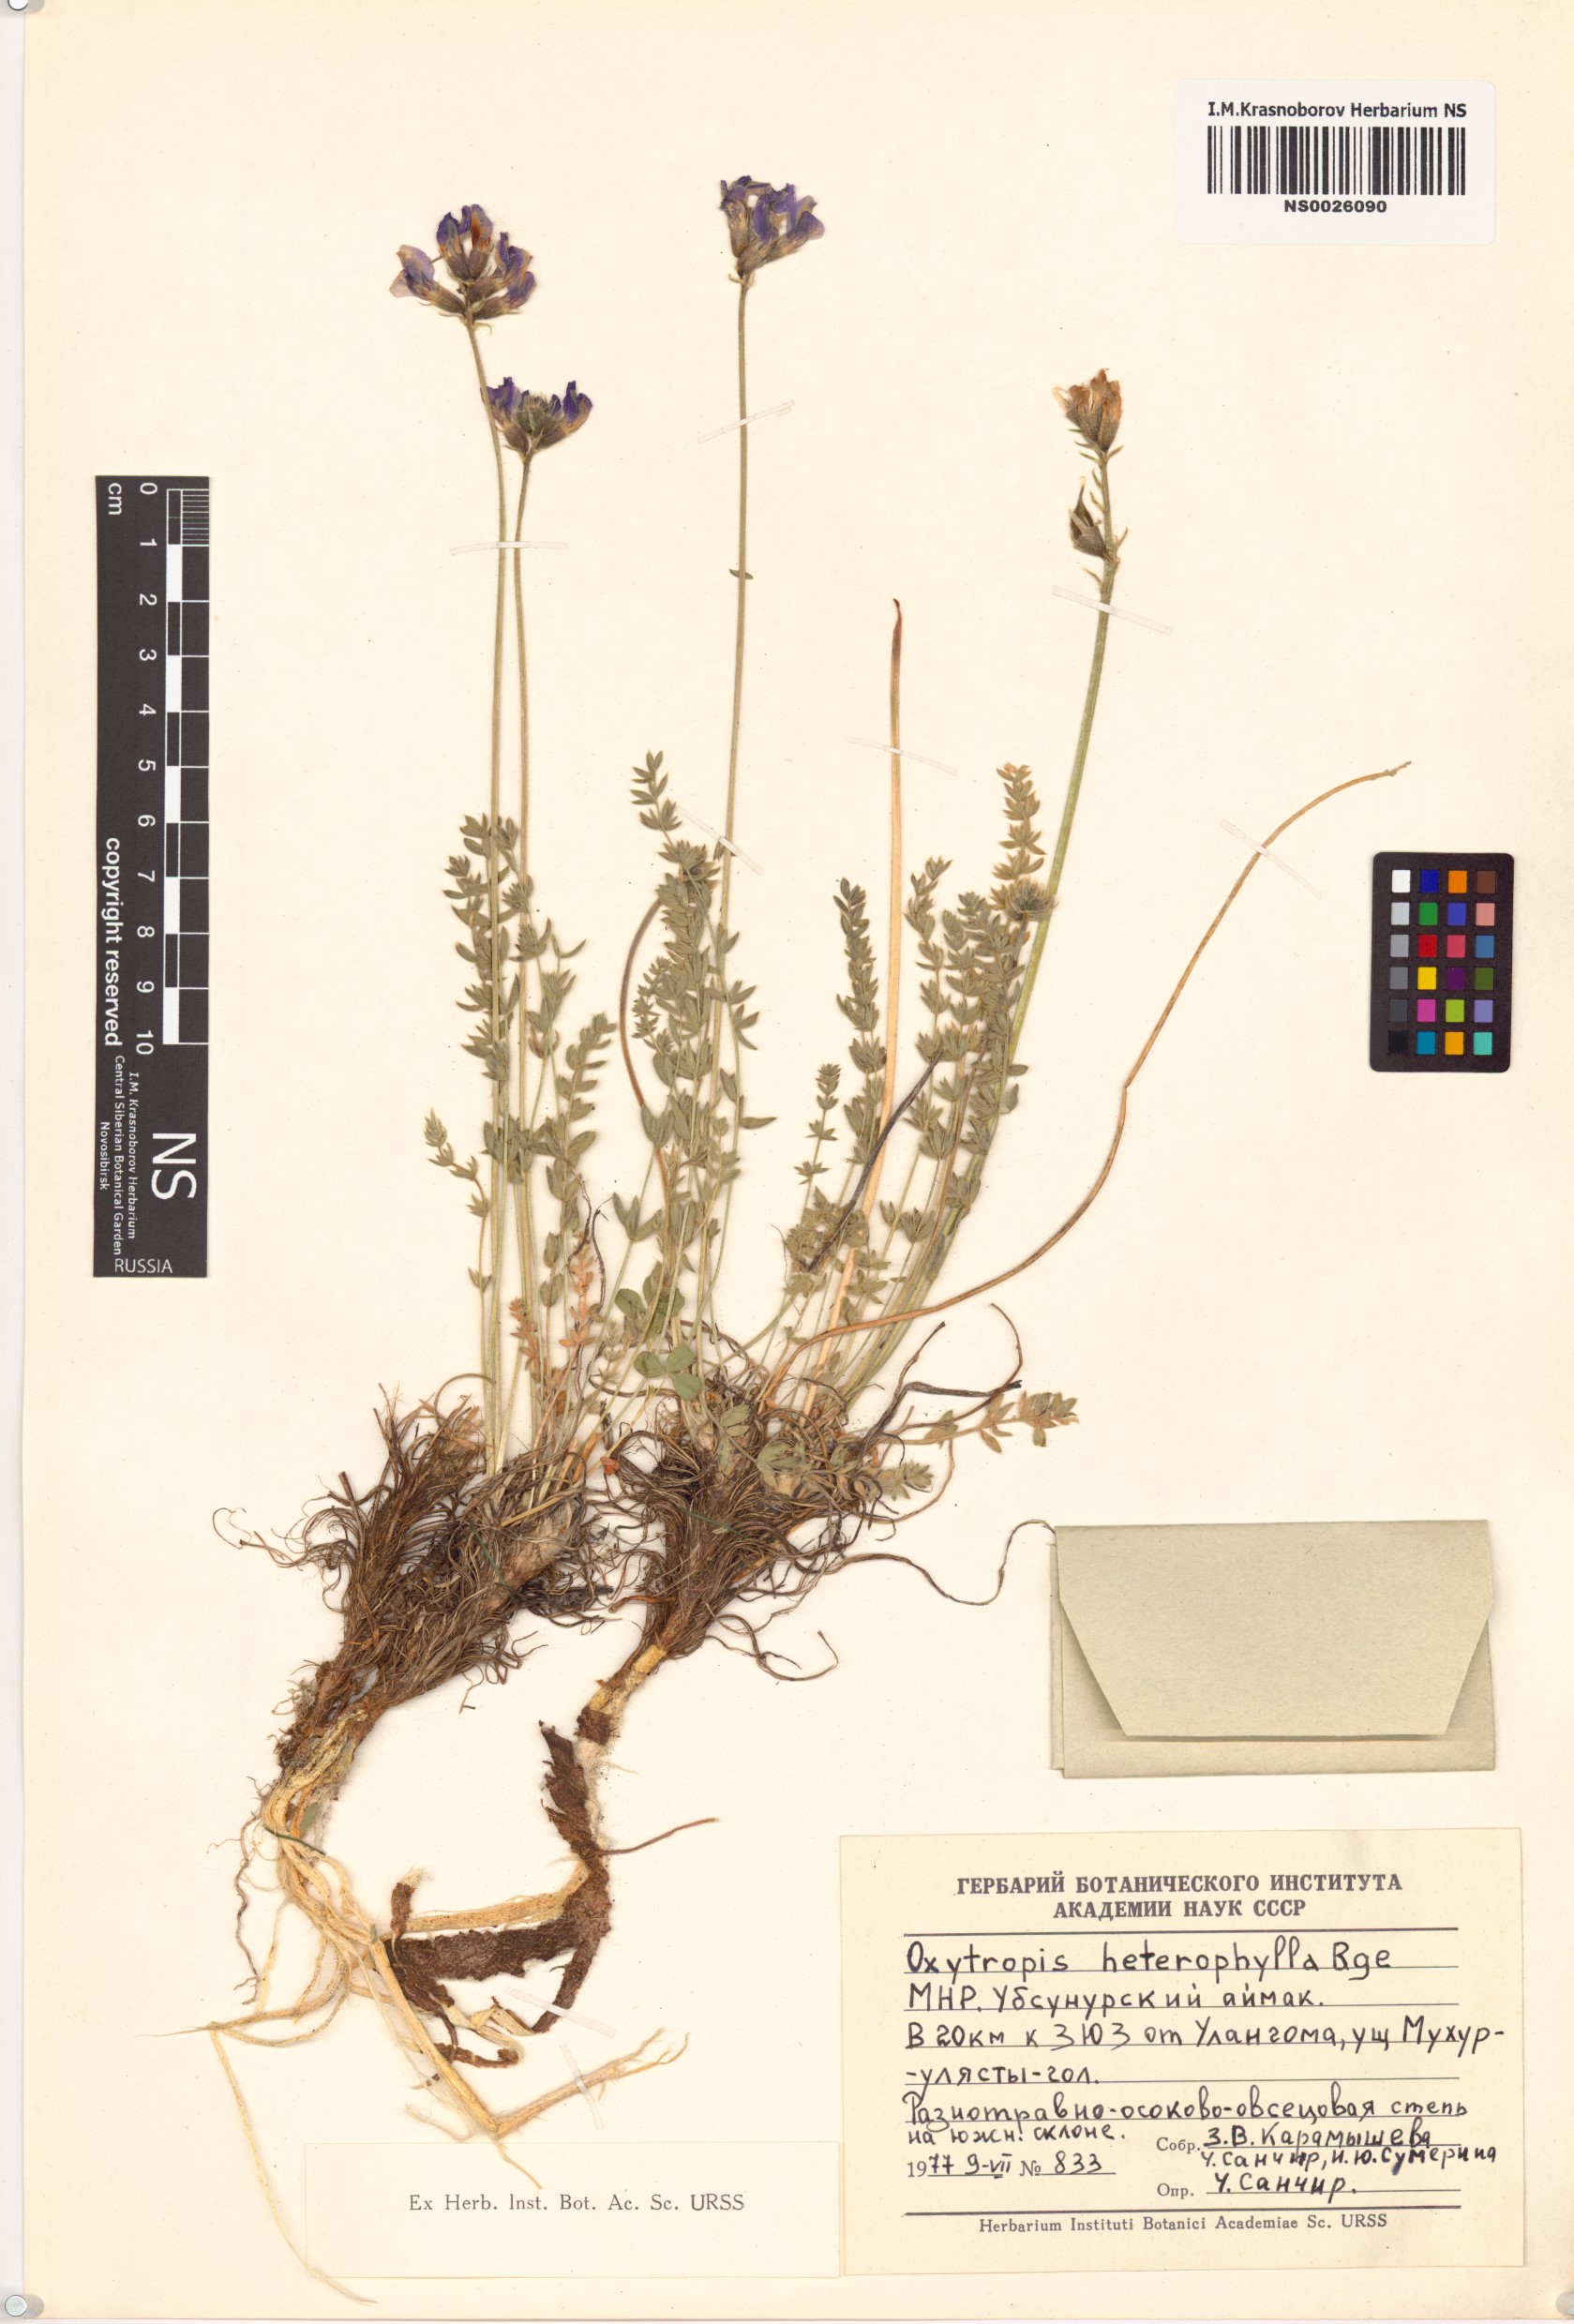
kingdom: Plantae
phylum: Tracheophyta
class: Magnoliopsida
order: Fabales
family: Fabaceae
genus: Oxytropis
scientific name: Oxytropis heterophylla
